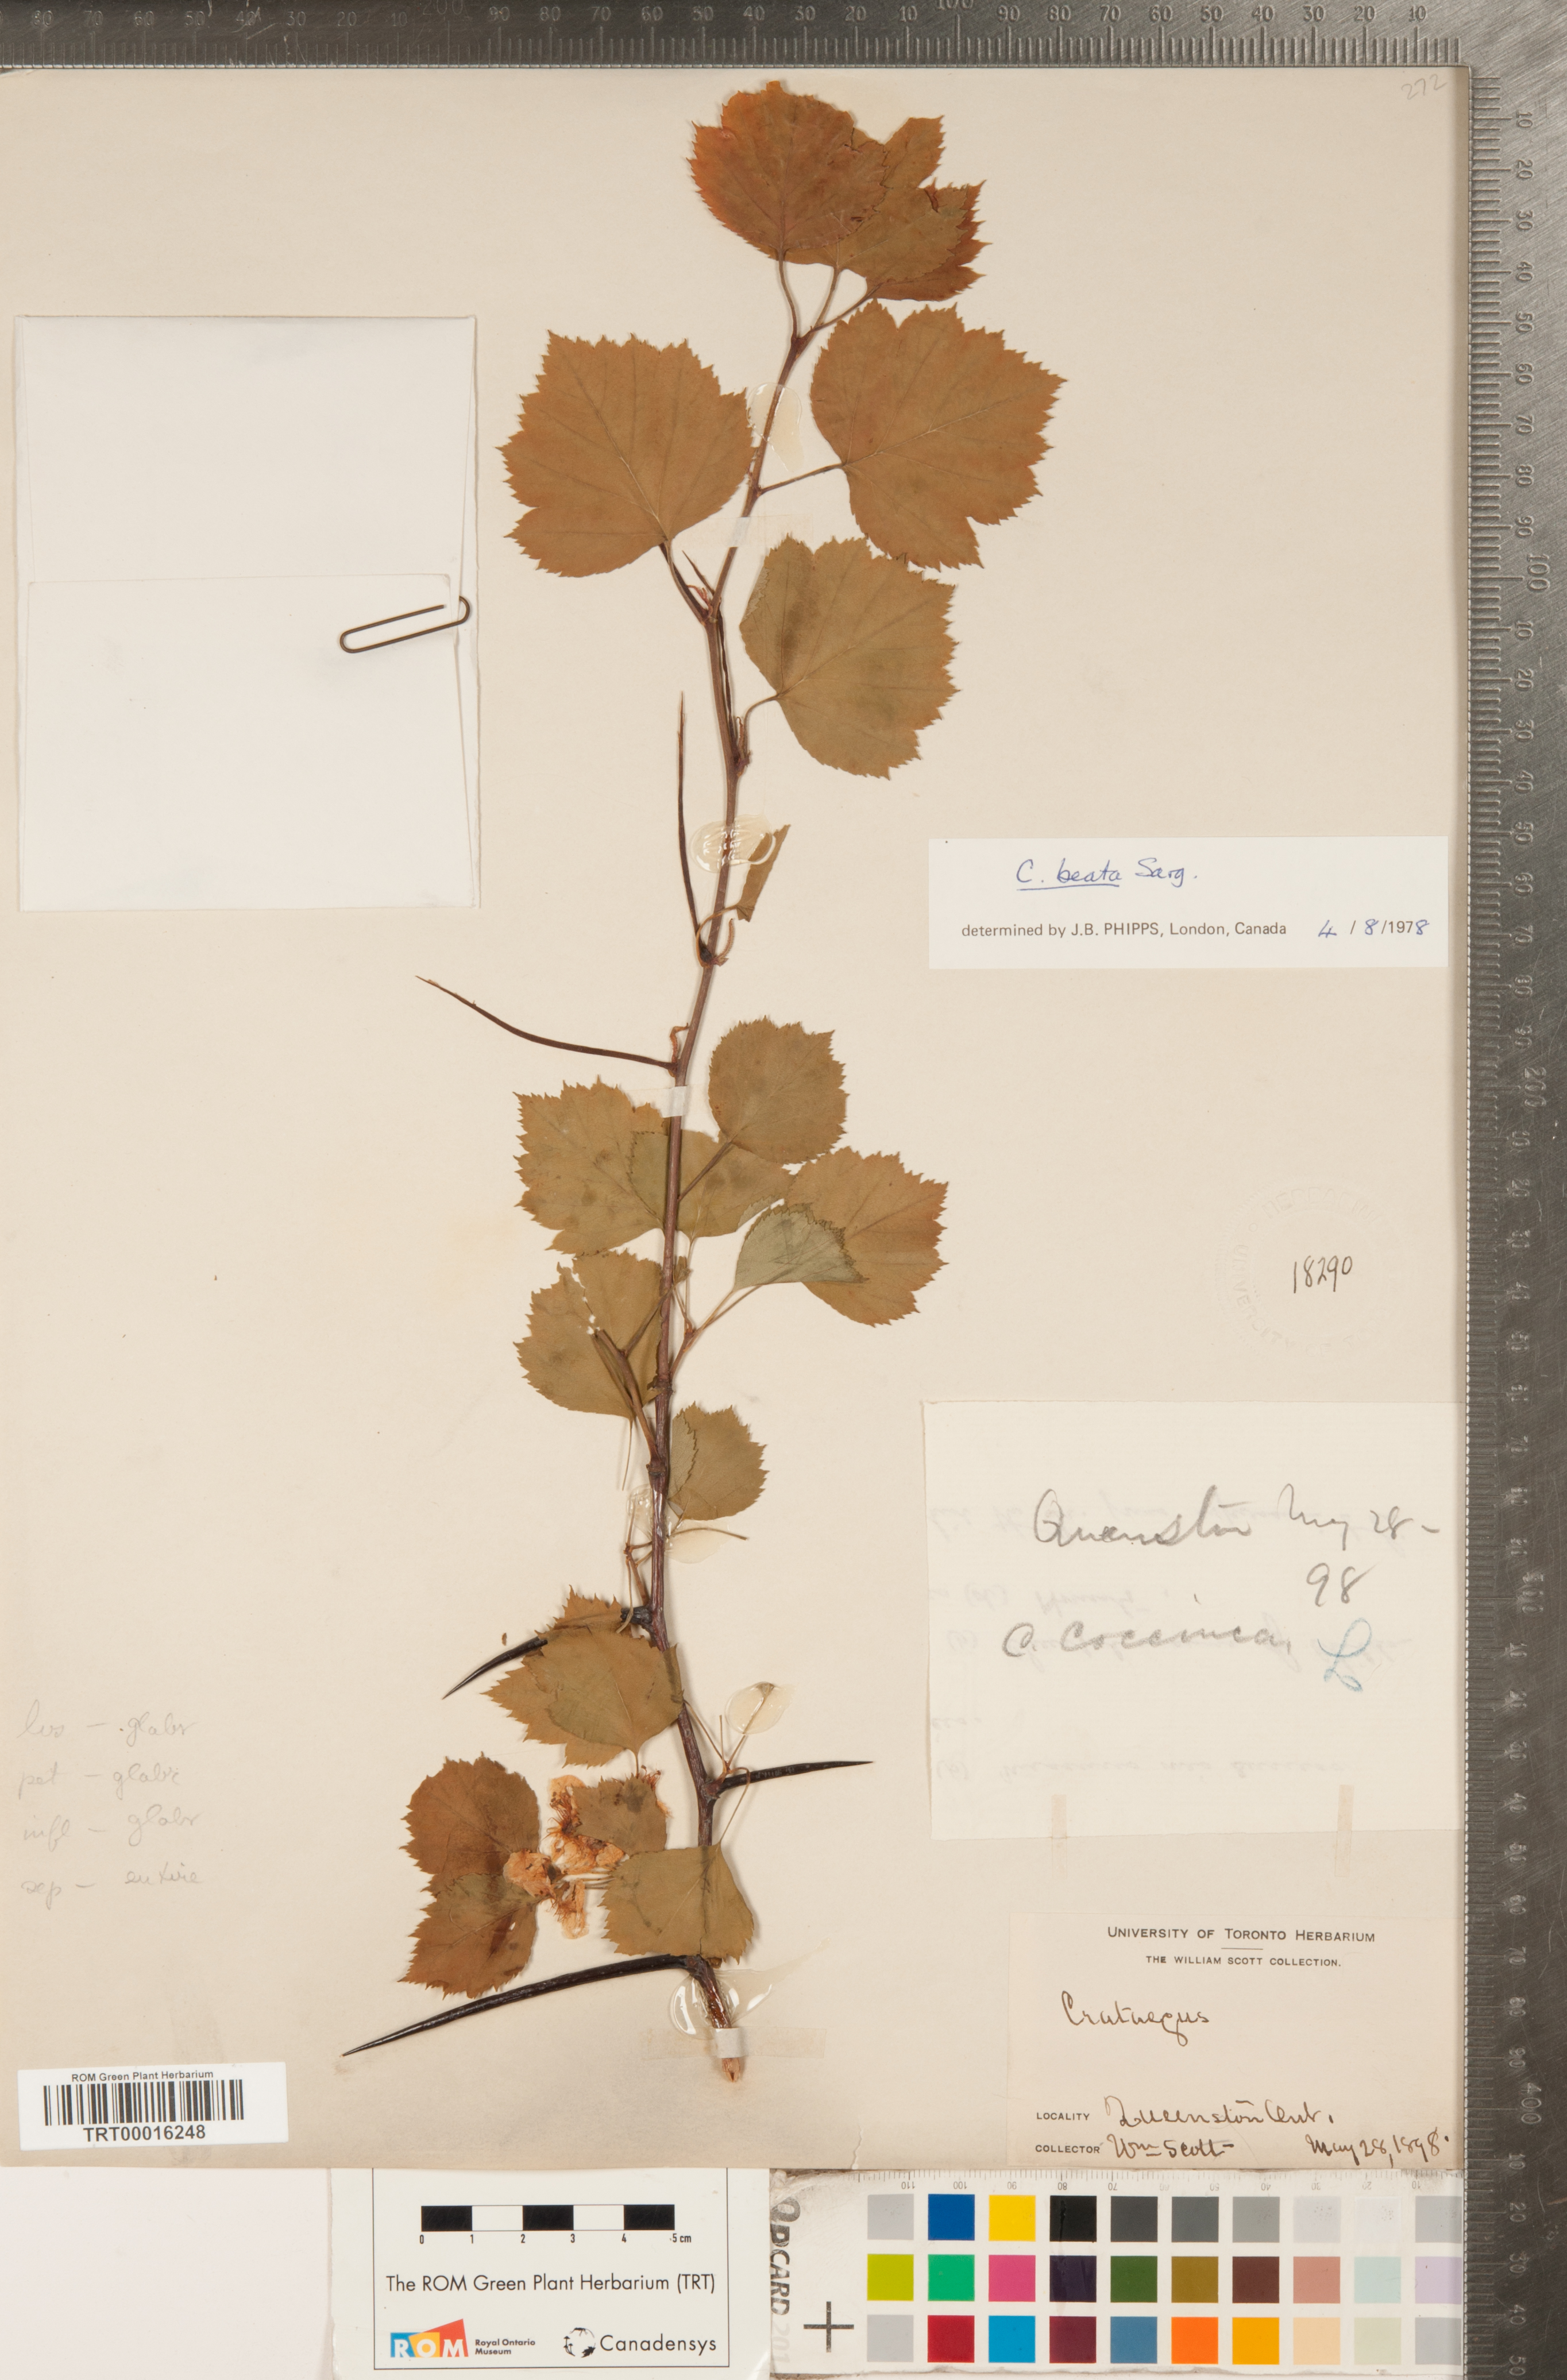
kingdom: Plantae
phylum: Tracheophyta
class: Magnoliopsida
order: Rosales
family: Rosaceae
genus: Crataegus
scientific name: Crataegus beata
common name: Dunbar's hawthorn
